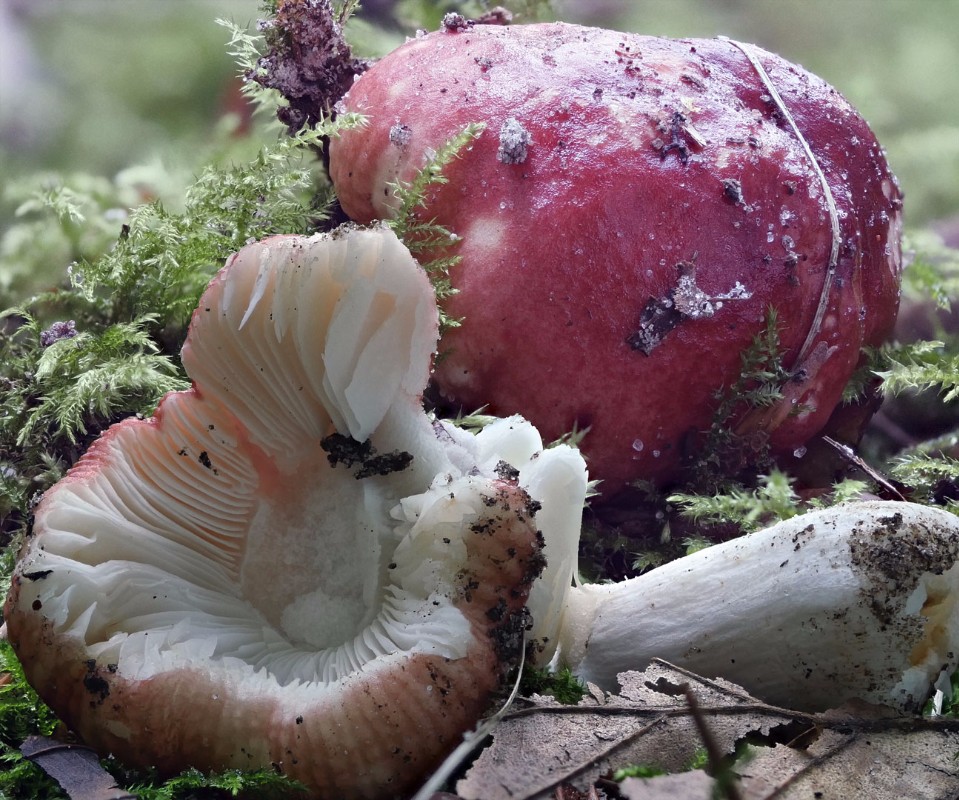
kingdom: Fungi
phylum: Basidiomycota
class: Agaricomycetes
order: Russulales
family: Russulaceae
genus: Russula
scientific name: Russula luteotacta
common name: gulplettet gift-skørhat
